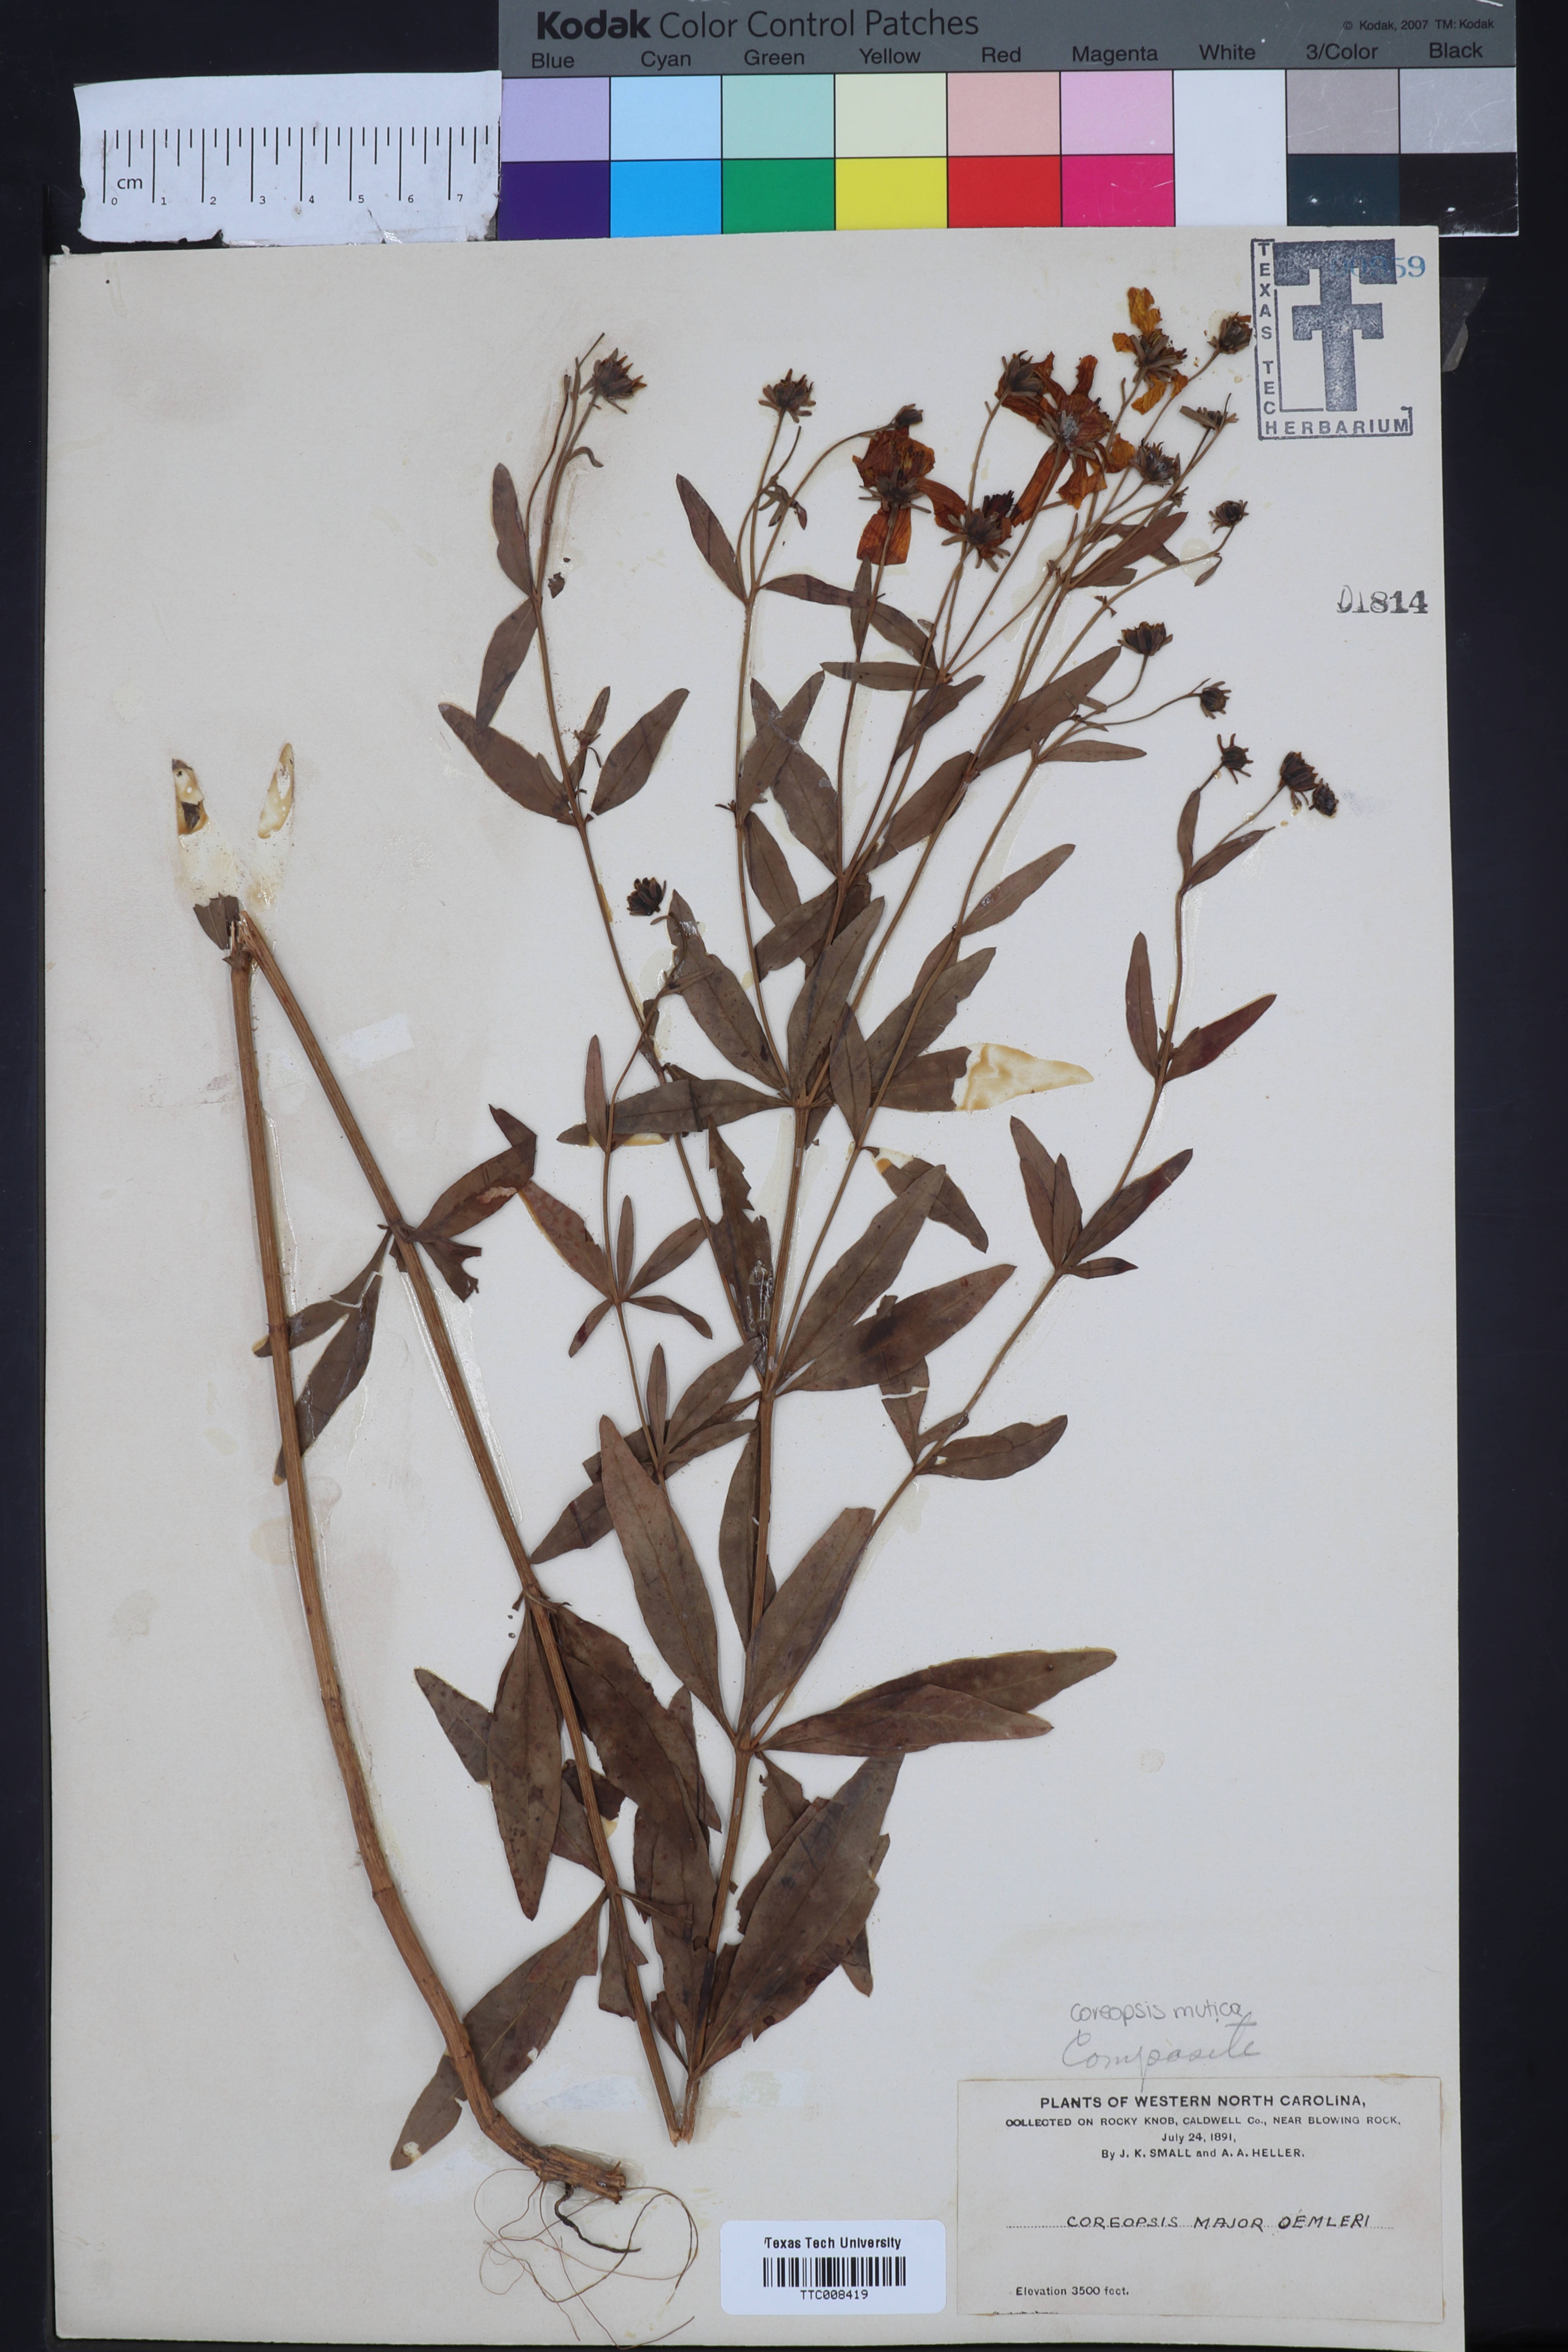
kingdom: Plantae
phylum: Tracheophyta
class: Magnoliopsida
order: Asterales
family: Asteraceae
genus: Coreopsis
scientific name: Coreopsis major
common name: Forest tickseed
